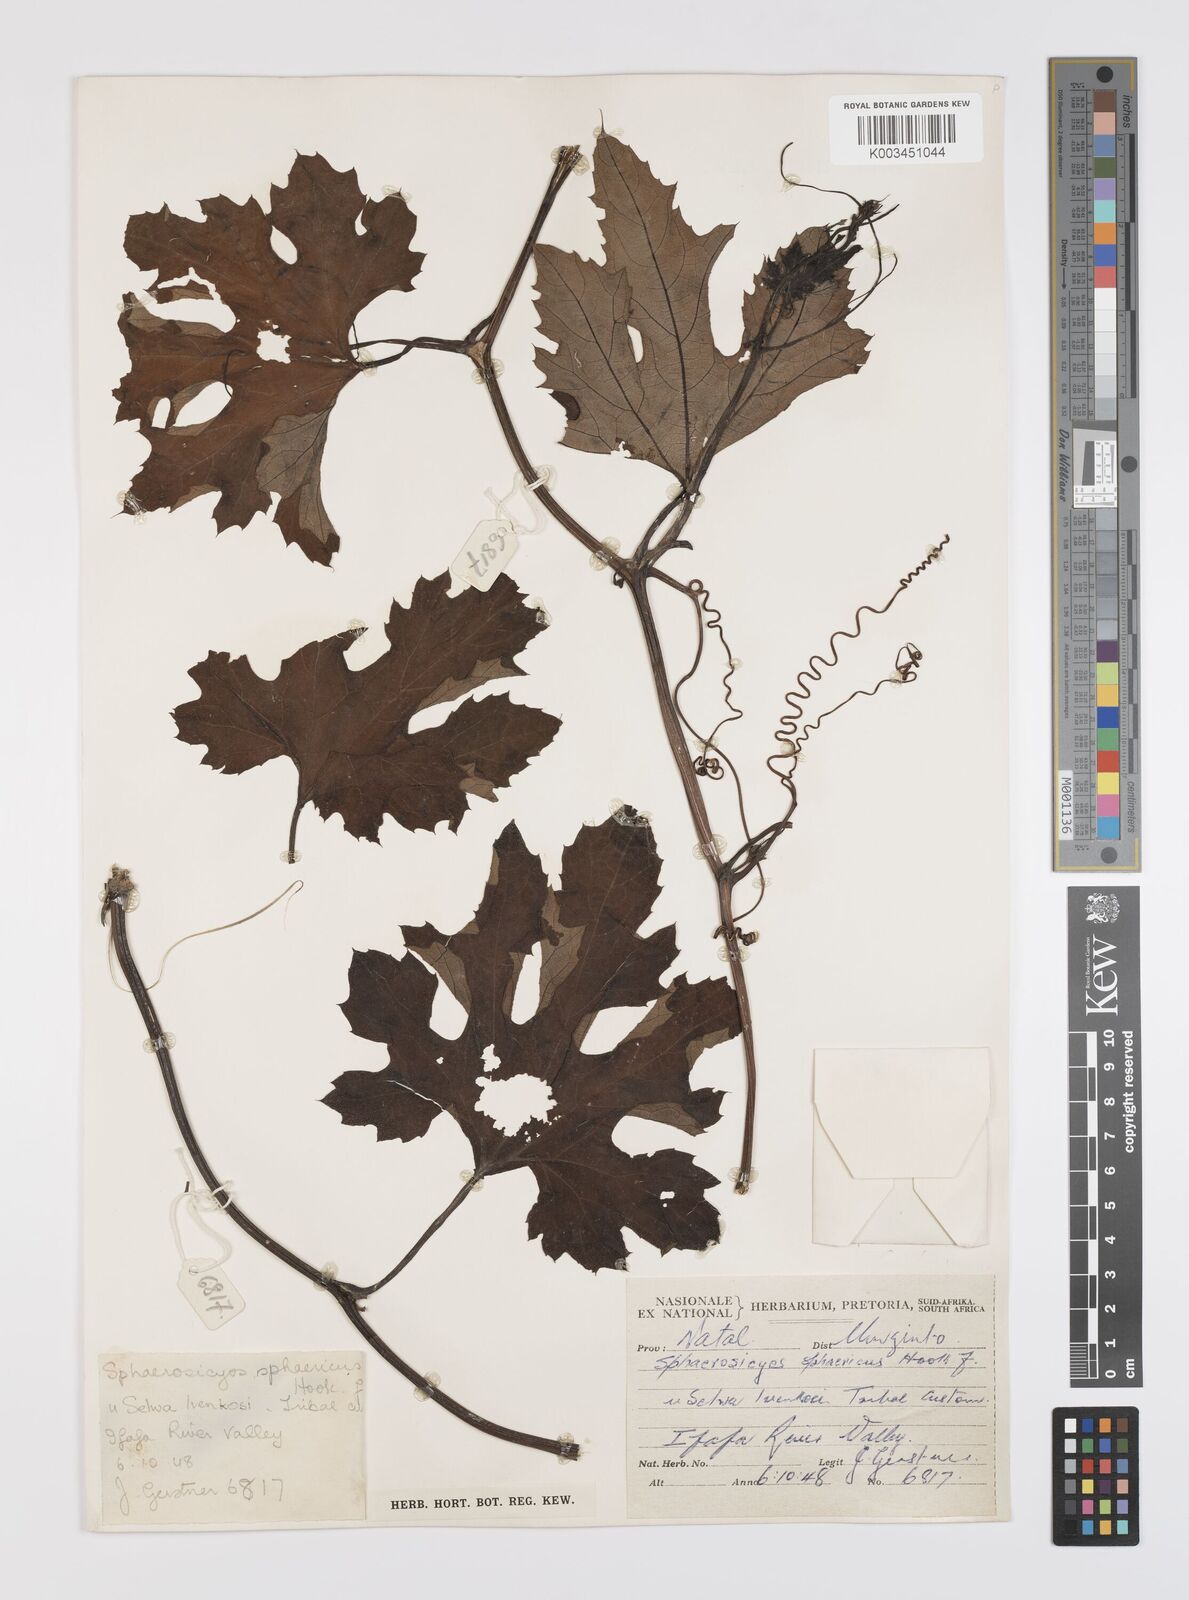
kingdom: Plantae
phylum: Tracheophyta
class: Magnoliopsida
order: Cucurbitales
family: Cucurbitaceae
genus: Lagenaria
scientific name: Lagenaria sphaerica
